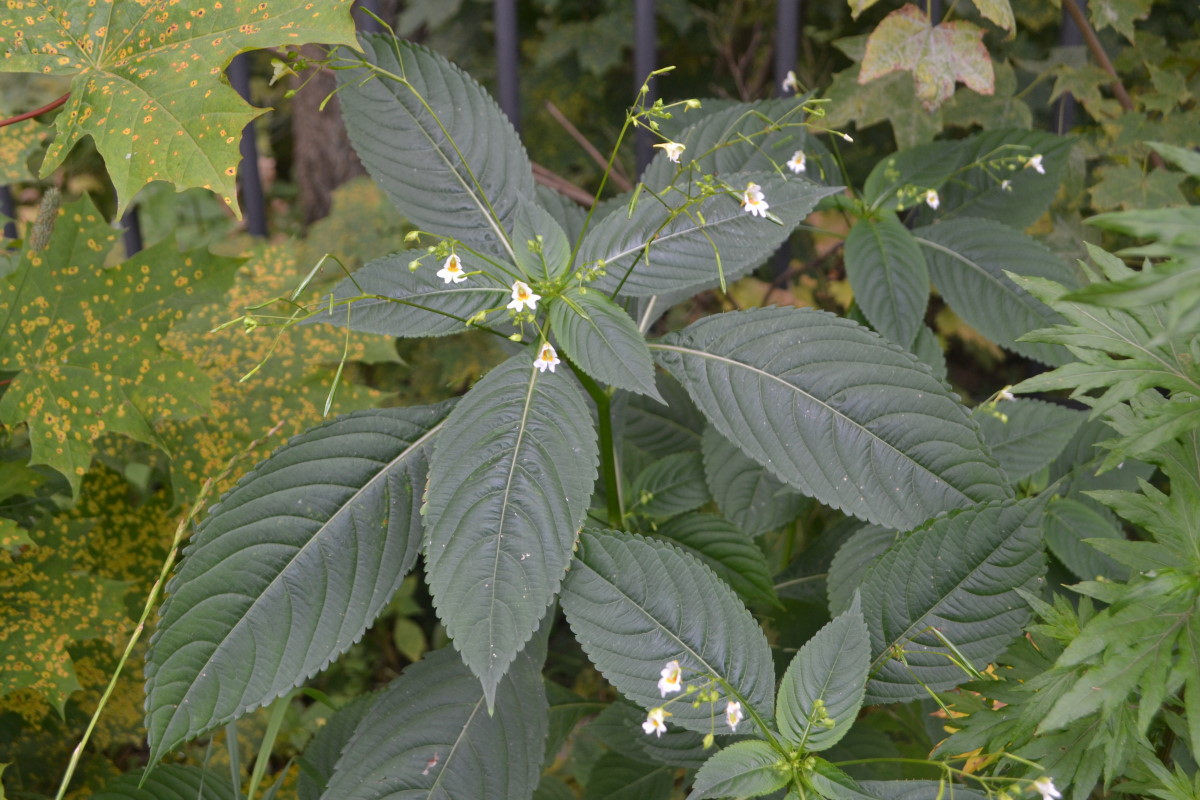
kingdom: Plantae
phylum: Tracheophyta
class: Magnoliopsida
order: Ericales
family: Balsaminaceae
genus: Impatiens
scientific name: Impatiens parviflora
